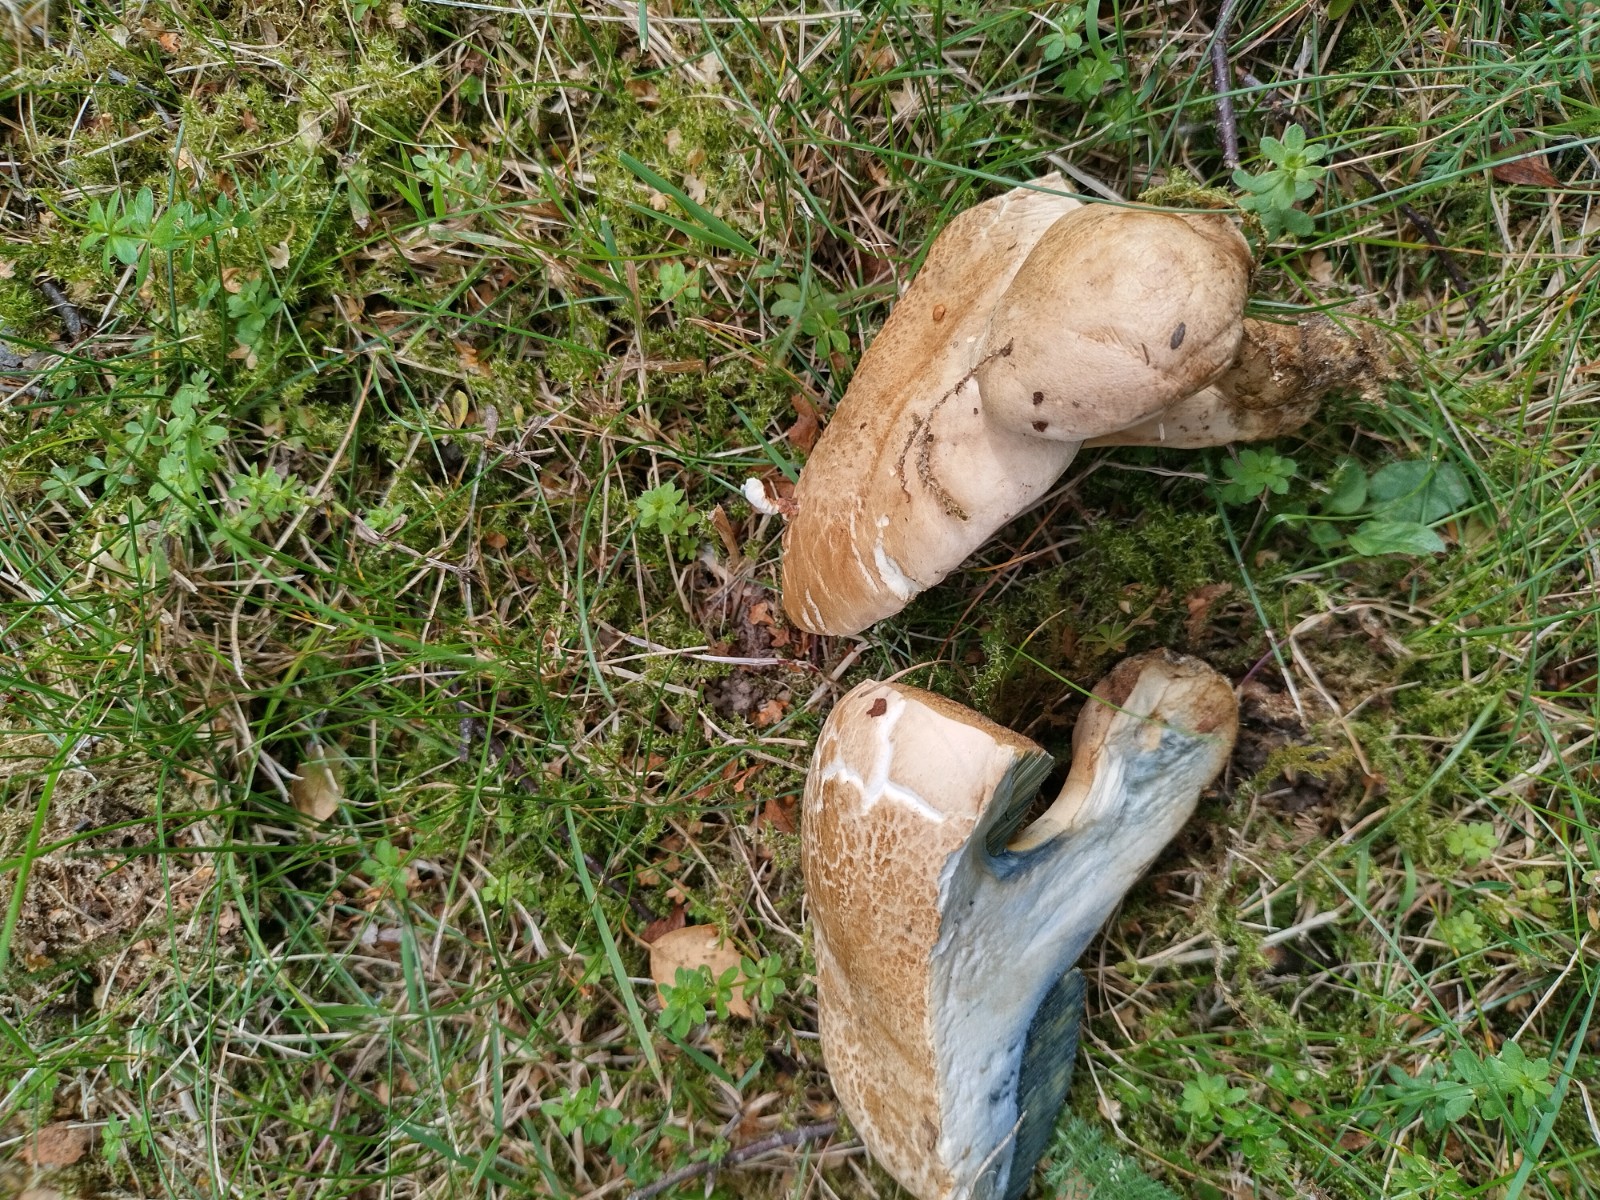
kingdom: Fungi
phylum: Basidiomycota
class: Agaricomycetes
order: Boletales
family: Boletaceae
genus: Caloboletus
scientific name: Caloboletus radicans
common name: rod-rørhat
